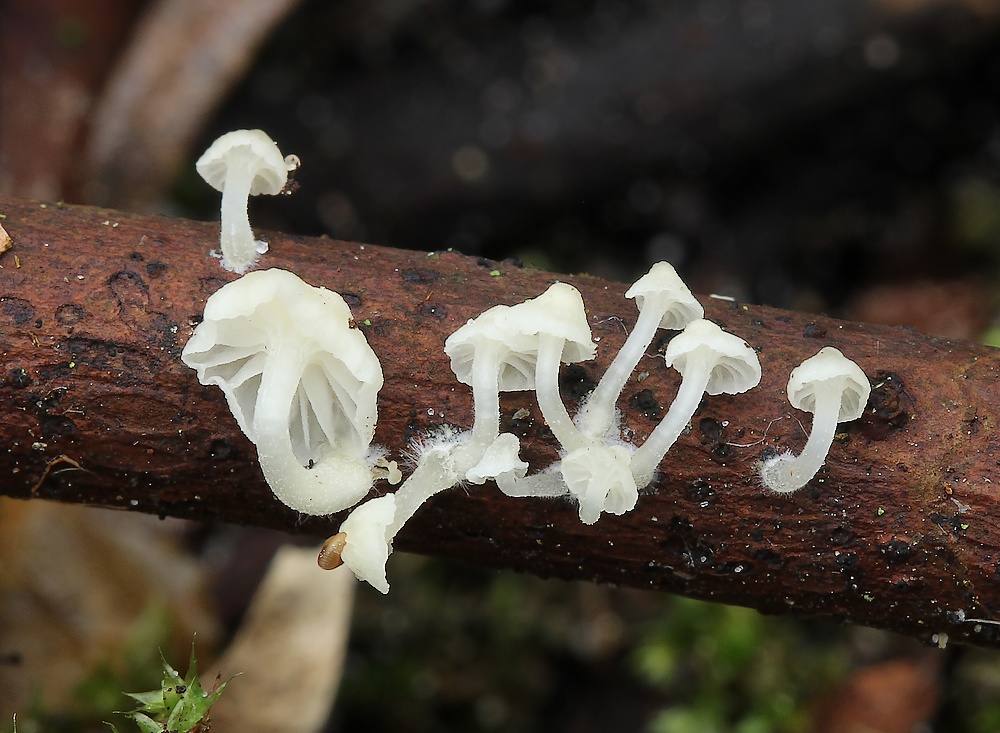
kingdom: Fungi
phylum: Basidiomycota
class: Agaricomycetes
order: Agaricales
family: Porotheleaceae
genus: Phloeomana
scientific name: Phloeomana speirea
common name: kvist-huesvamp
